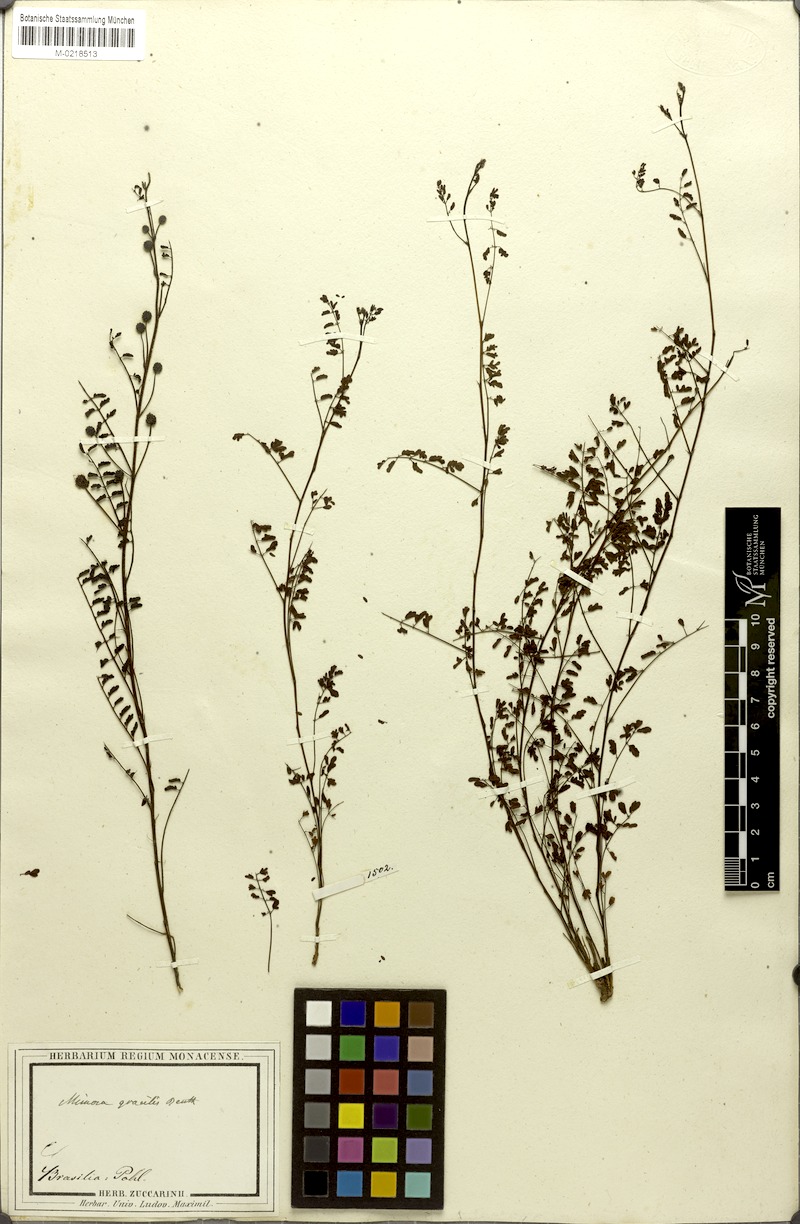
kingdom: Plantae
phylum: Tracheophyta
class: Magnoliopsida
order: Fabales
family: Fabaceae
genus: Mimosa
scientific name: Mimosa gracilis
